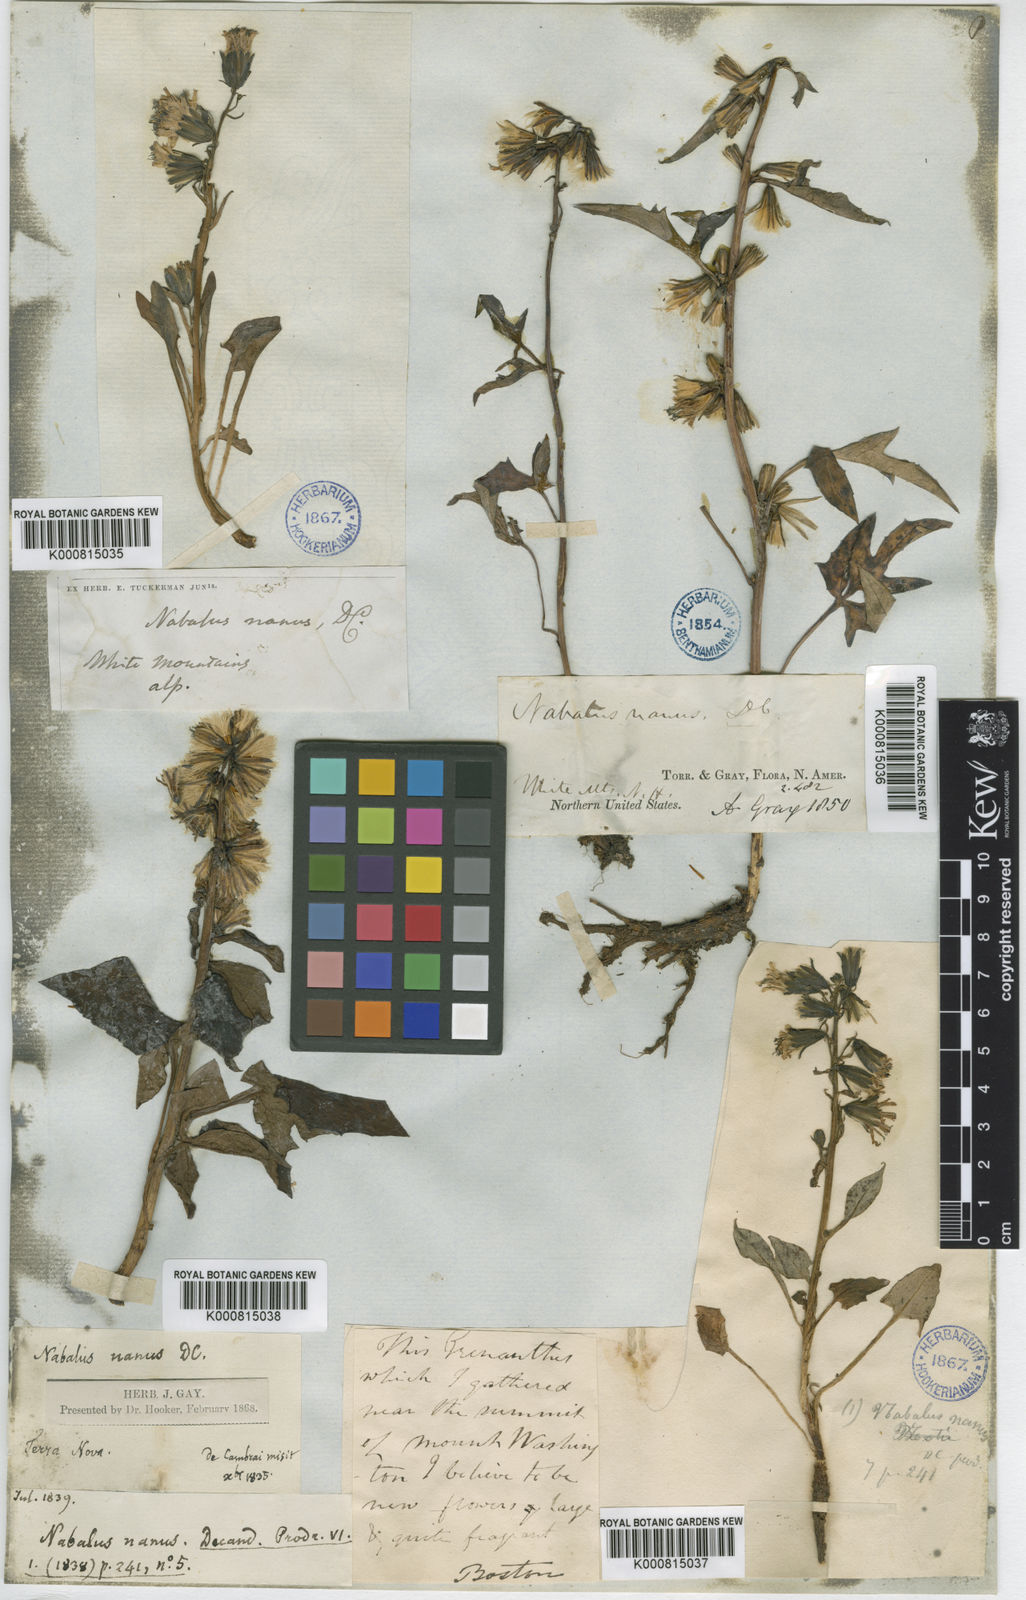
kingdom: Plantae
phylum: Tracheophyta
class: Magnoliopsida
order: Asterales
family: Asteraceae
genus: Nabalus
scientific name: Nabalus trifoliolatus
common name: Gall-of-the-earth
